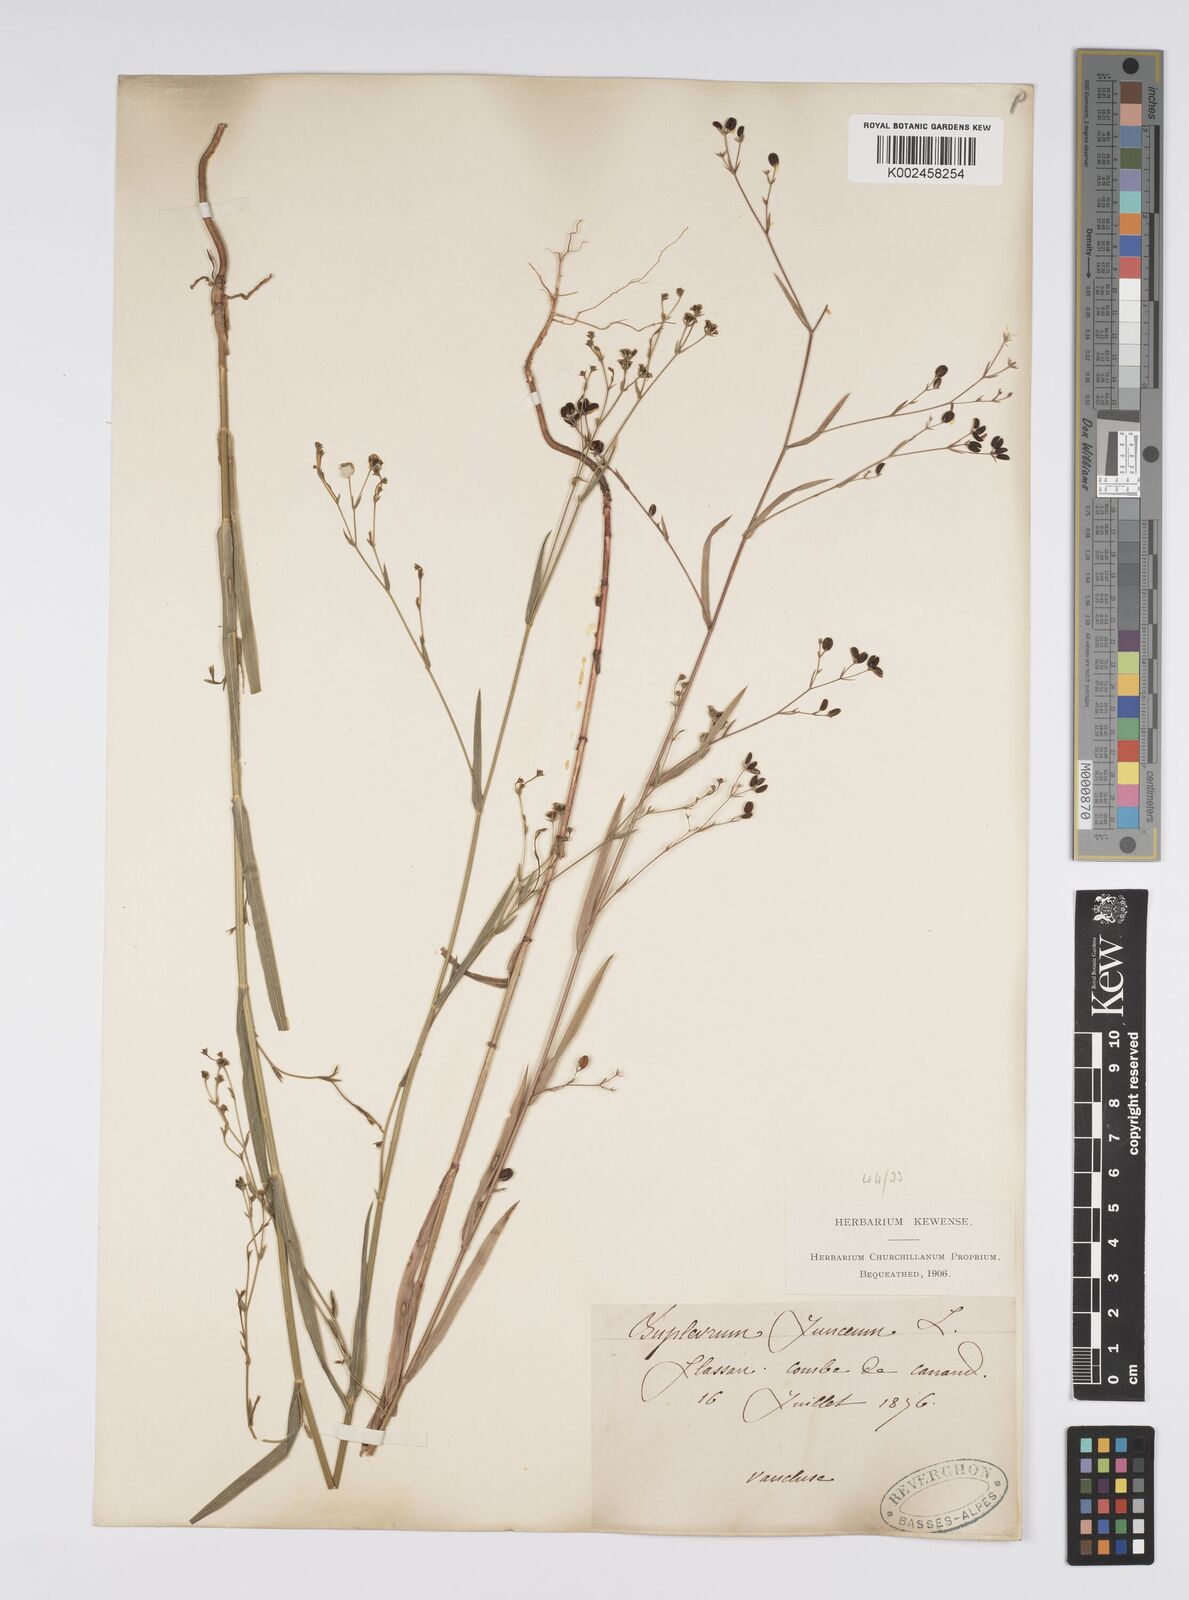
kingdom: Plantae
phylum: Tracheophyta
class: Magnoliopsida
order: Apiales
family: Apiaceae
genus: Bupleurum
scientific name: Bupleurum praealtum
